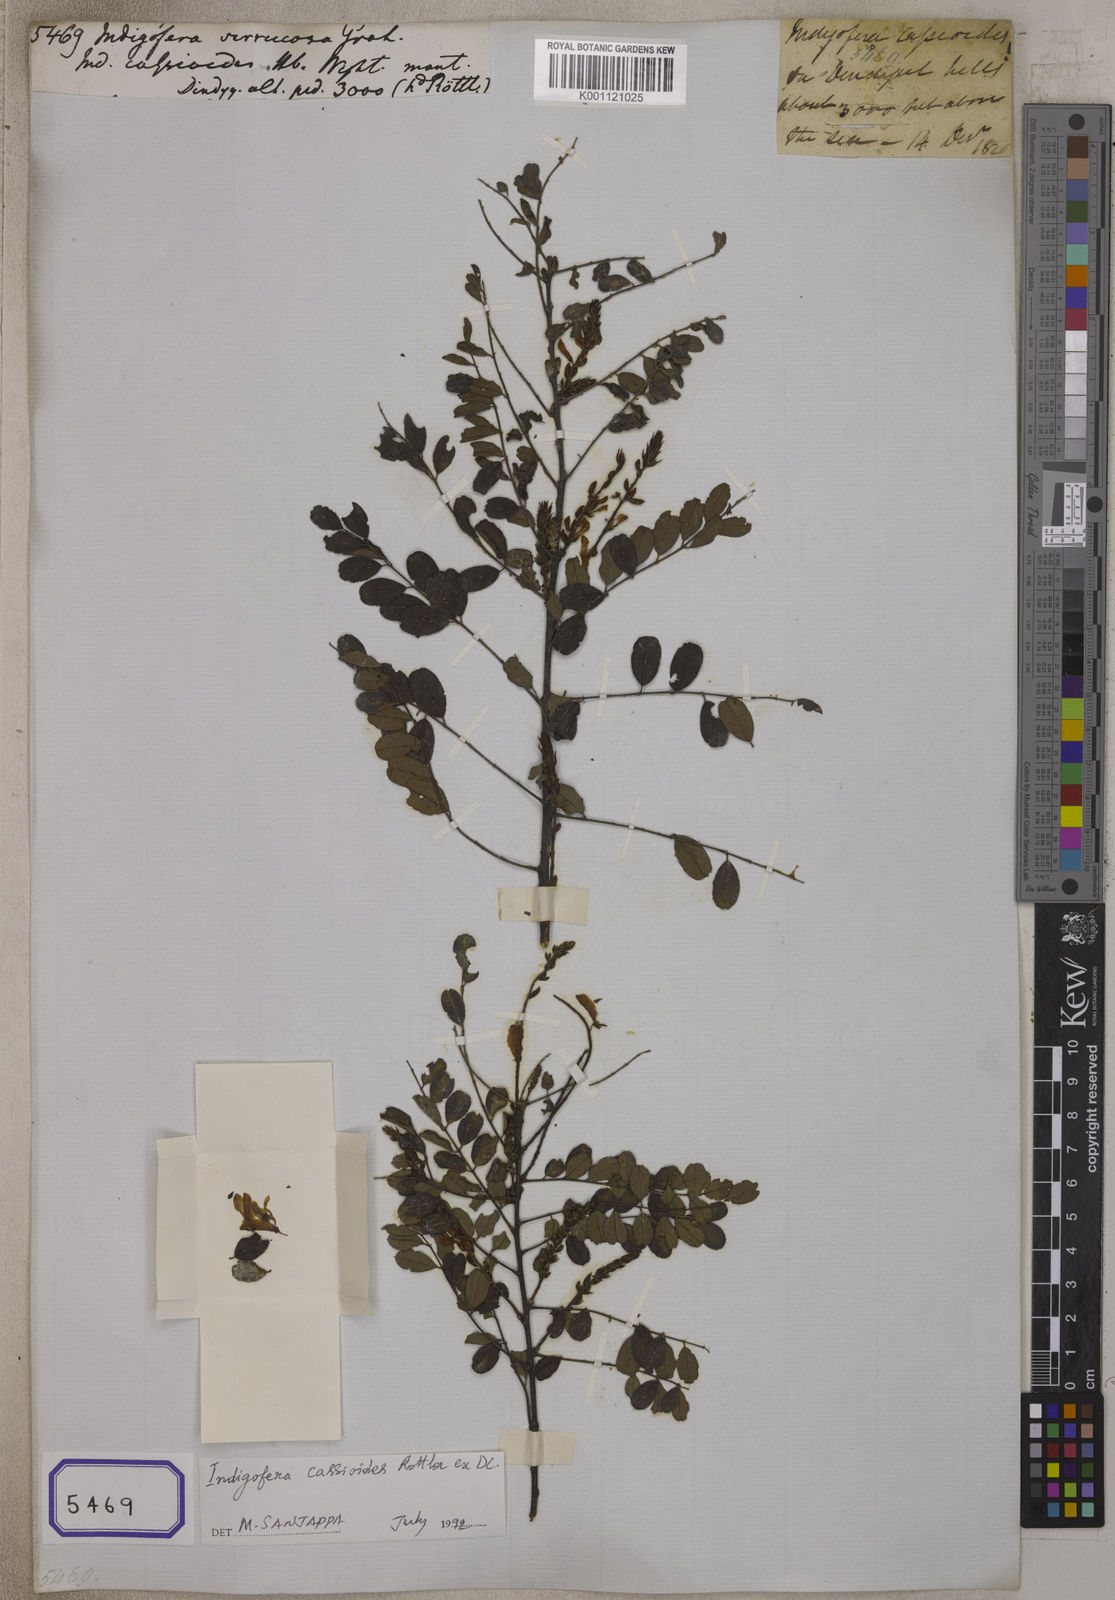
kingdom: Plantae
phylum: Tracheophyta
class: Magnoliopsida
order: Fabales
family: Fabaceae
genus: Indigofera
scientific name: Indigofera cassioides
